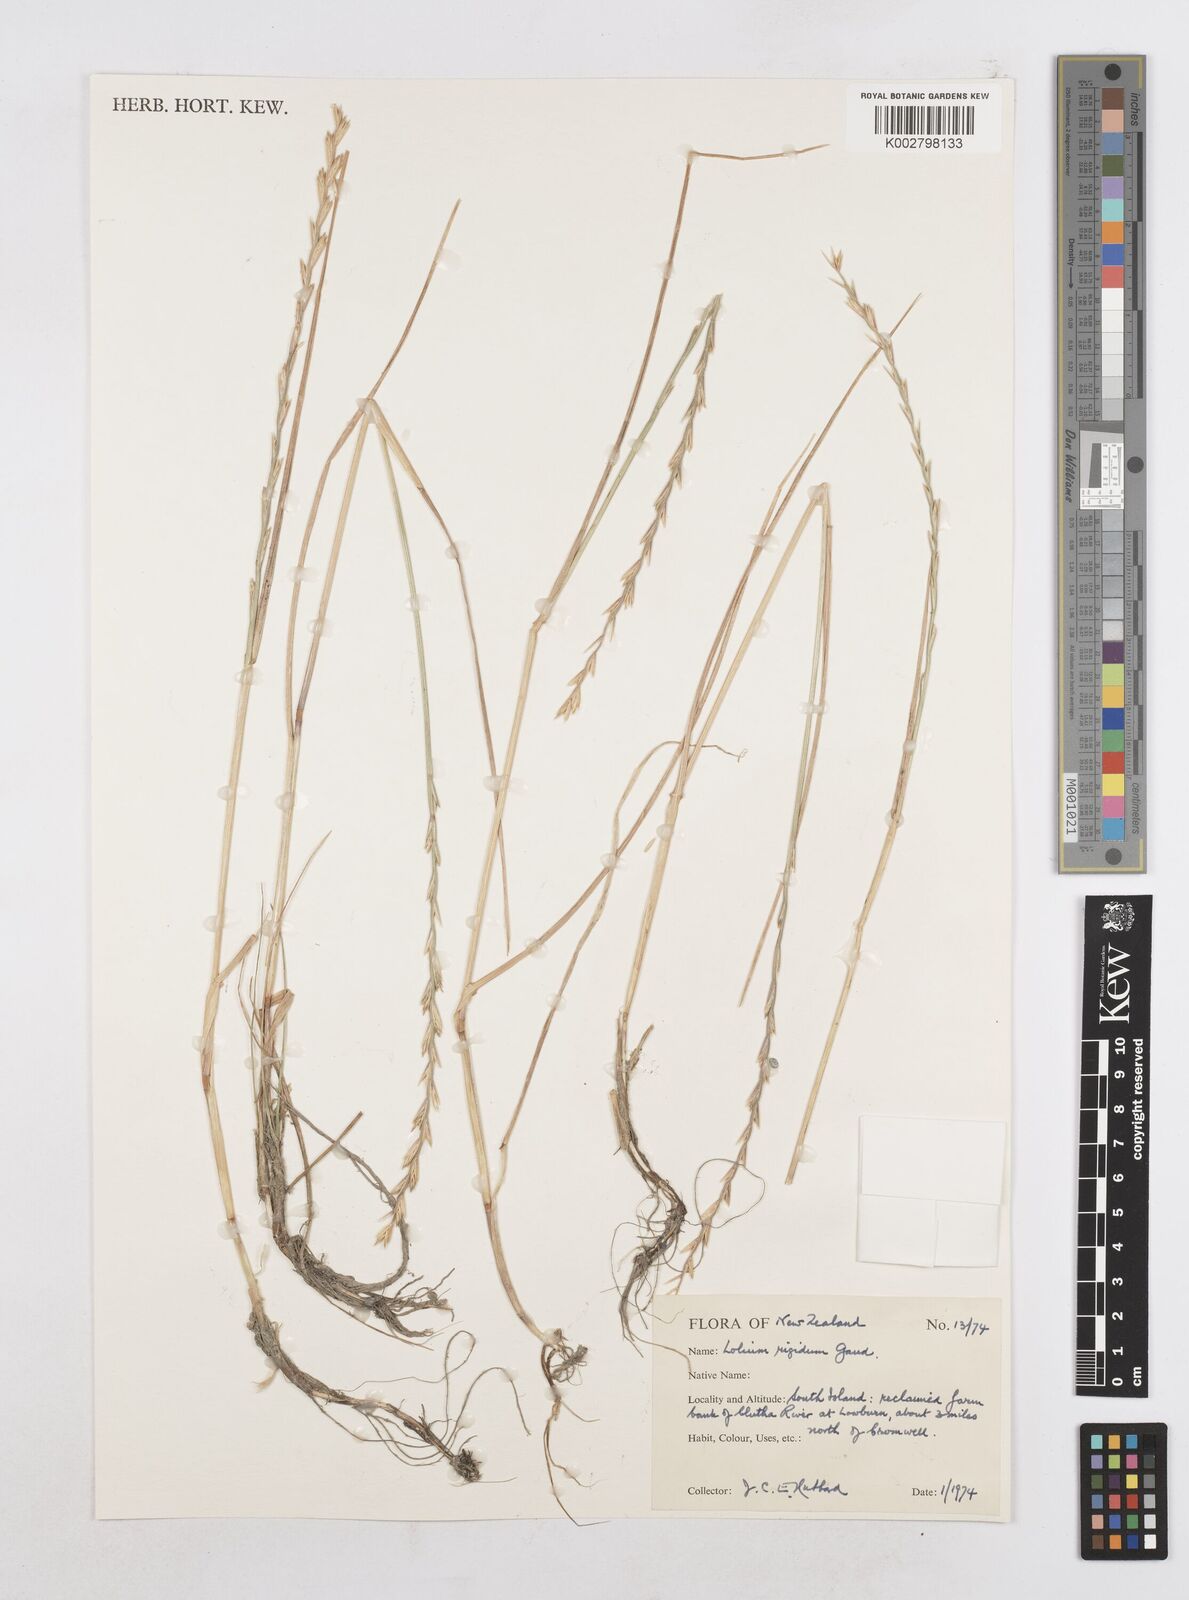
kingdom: Plantae
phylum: Tracheophyta
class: Liliopsida
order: Poales
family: Poaceae
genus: Lolium
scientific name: Lolium rigidum
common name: Wimmera ryegrass
